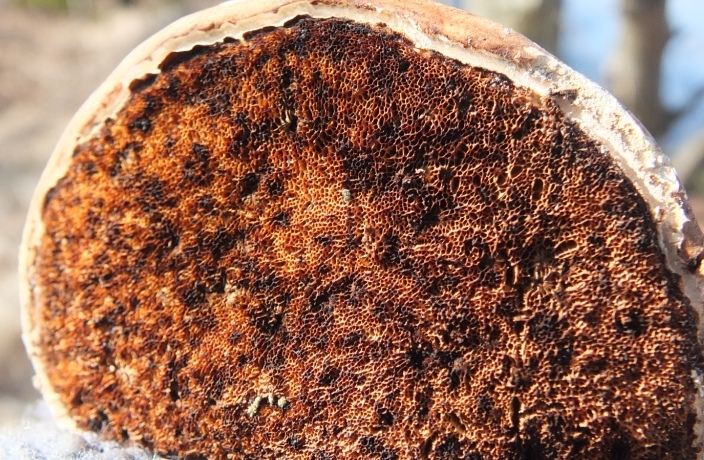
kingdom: Fungi
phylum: Basidiomycota
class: Agaricomycetes
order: Polyporales
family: Fomitopsidaceae
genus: Fomitopsis
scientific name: Fomitopsis betulina
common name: birkeporesvamp
